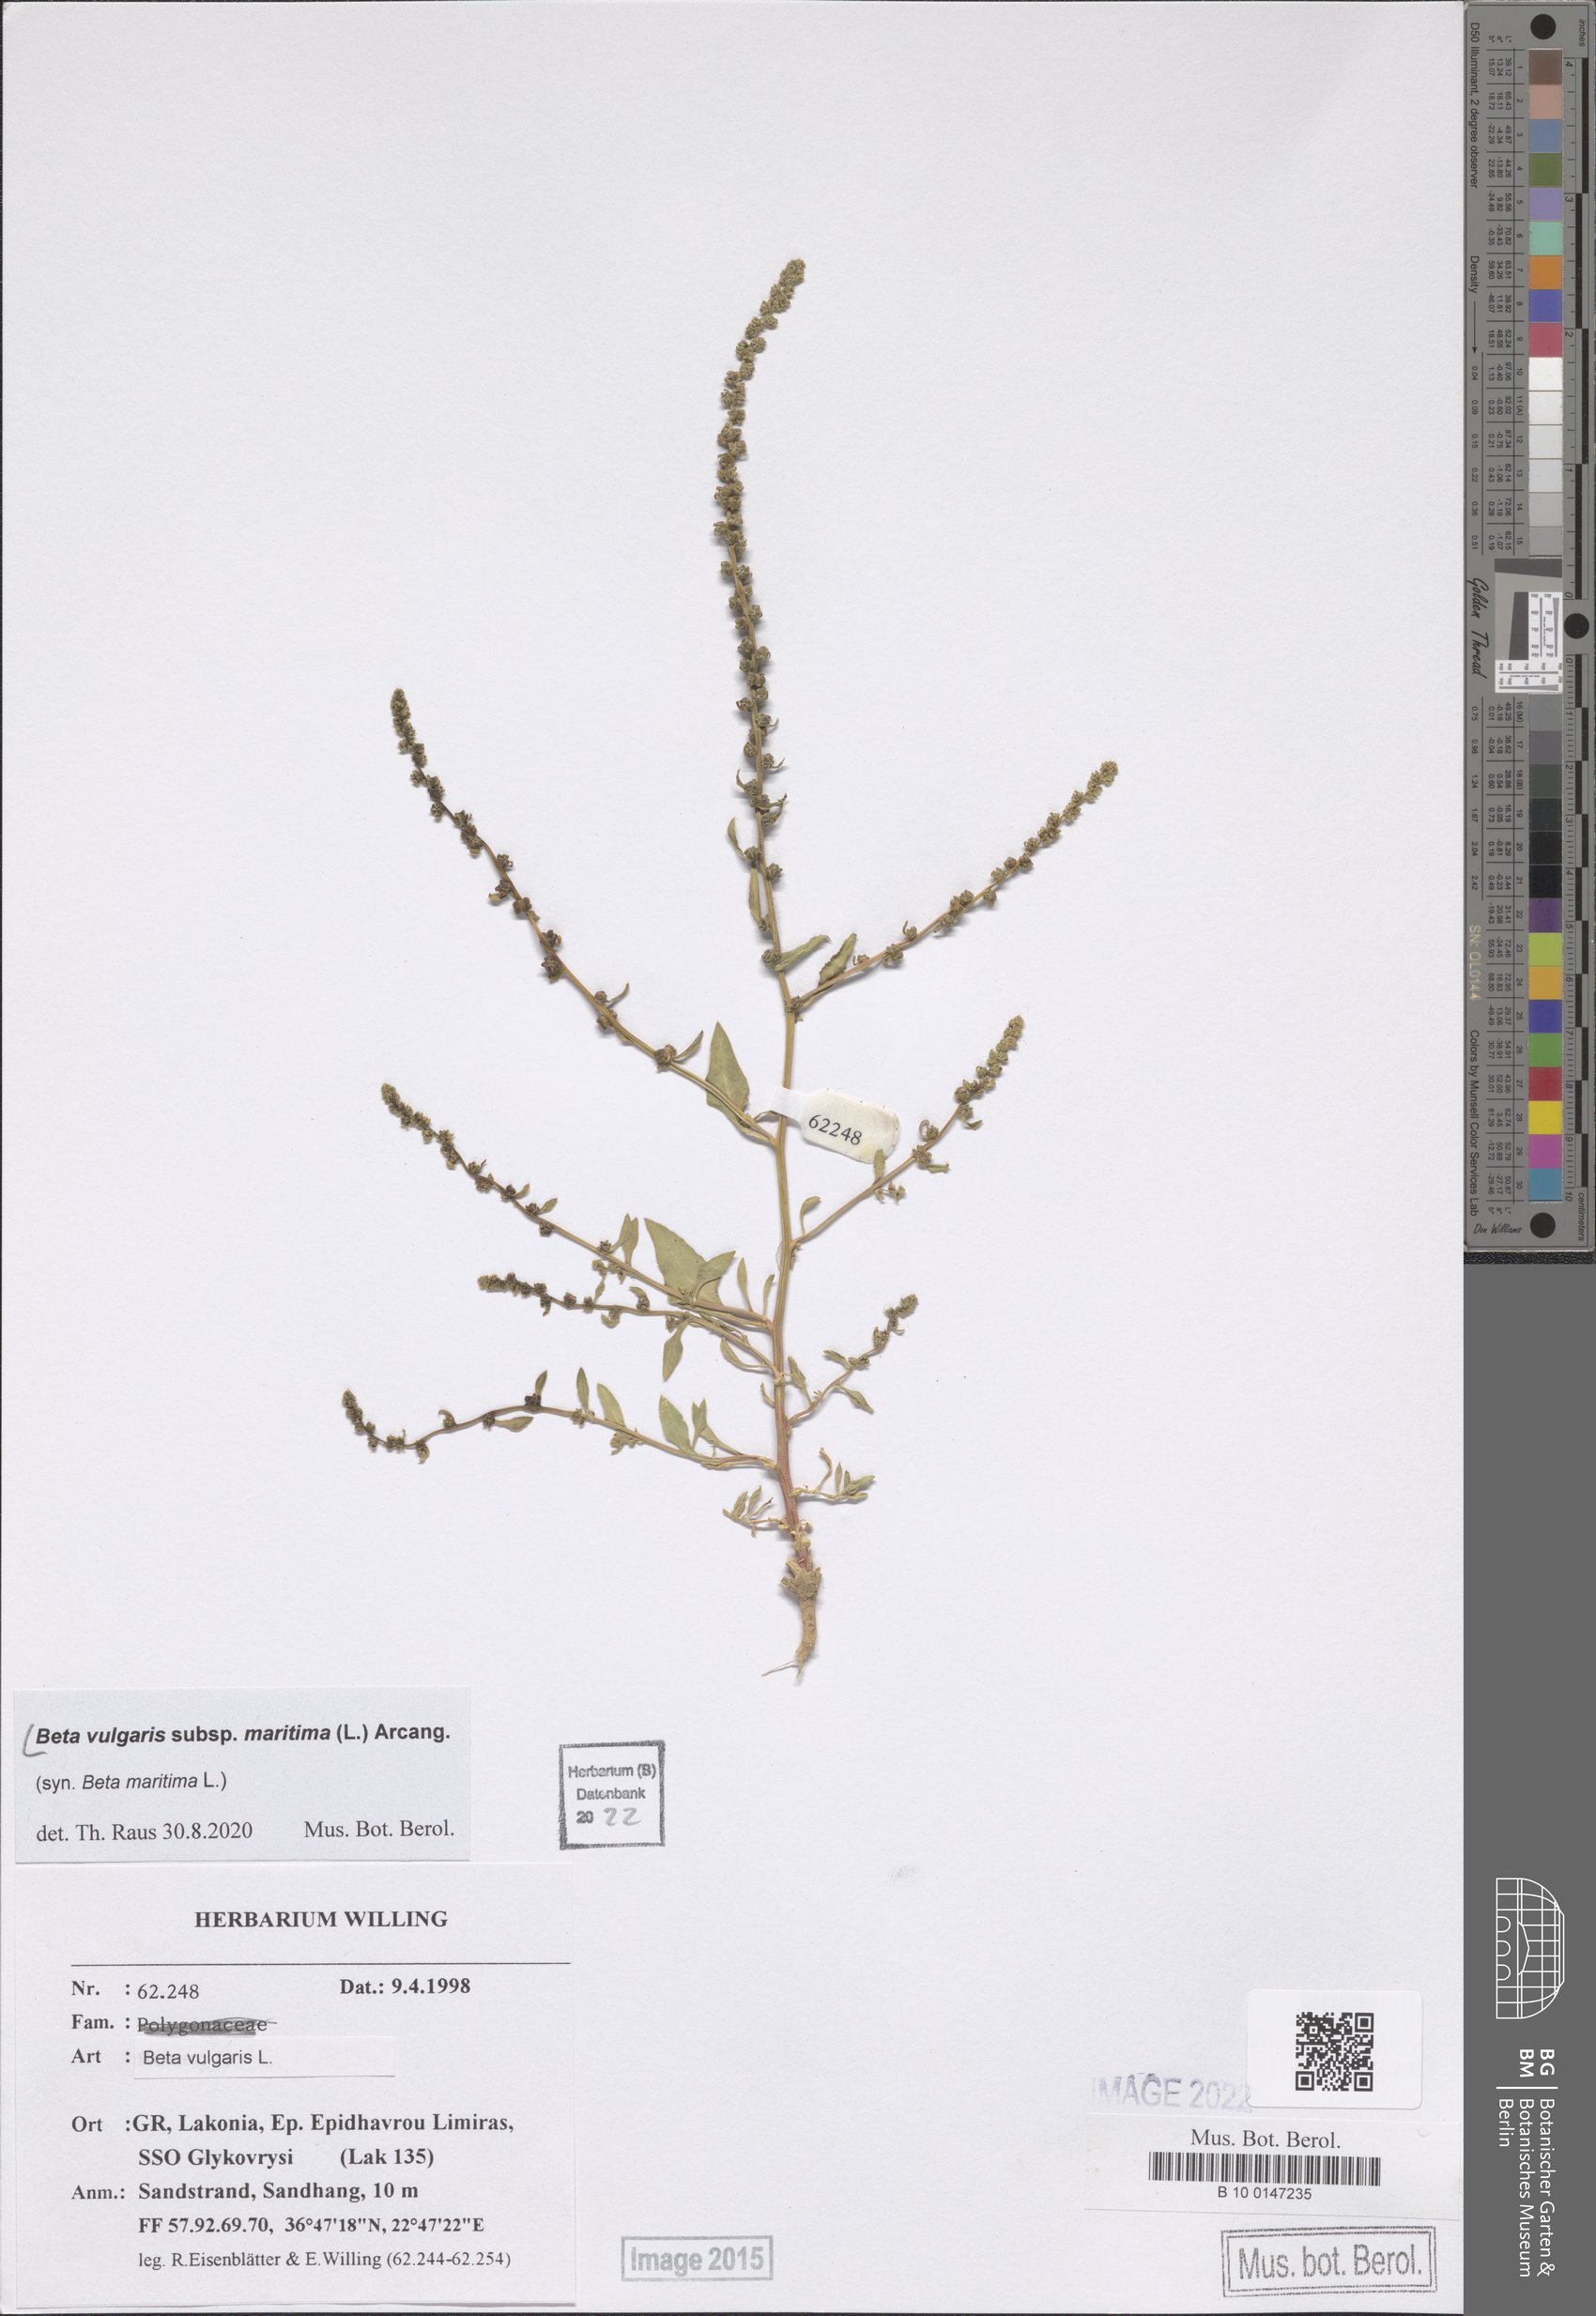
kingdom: Plantae
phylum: Tracheophyta
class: Magnoliopsida
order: Caryophyllales
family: Amaranthaceae
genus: Beta
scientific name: Beta maritima
